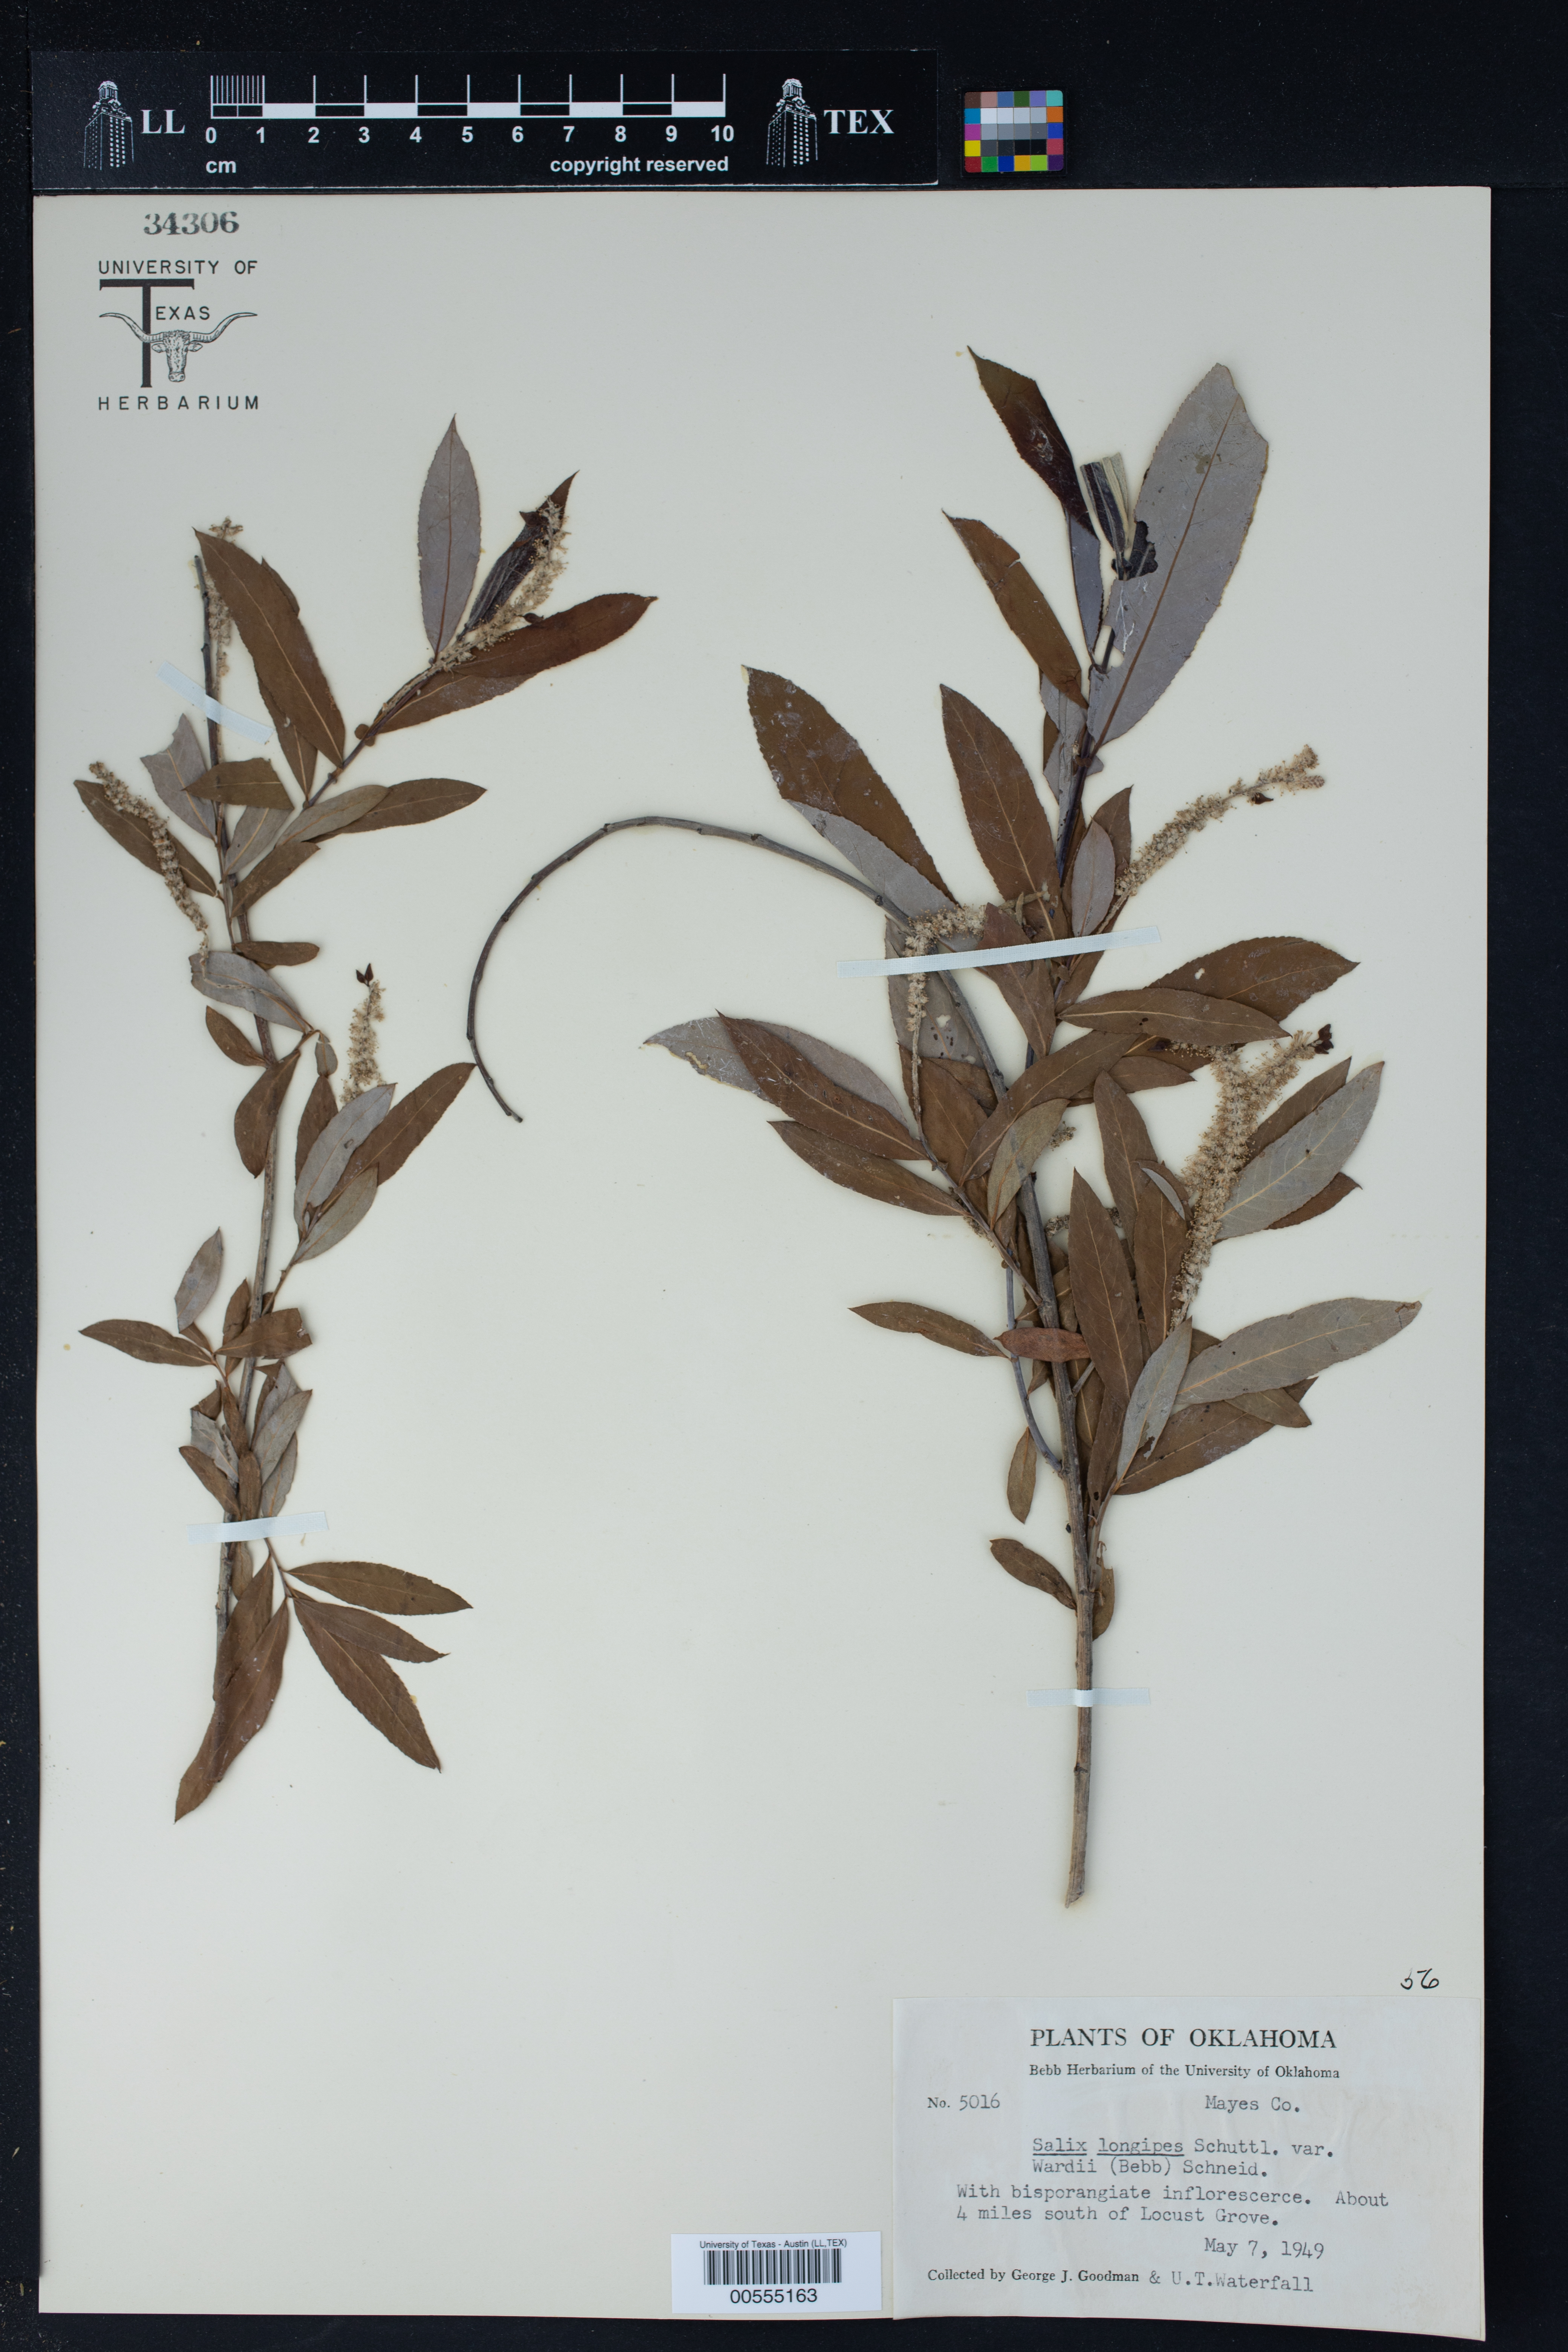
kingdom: Plantae
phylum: Tracheophyta
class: Magnoliopsida
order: Malpighiales
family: Salicaceae
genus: Salix
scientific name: Salix fruticulosa
